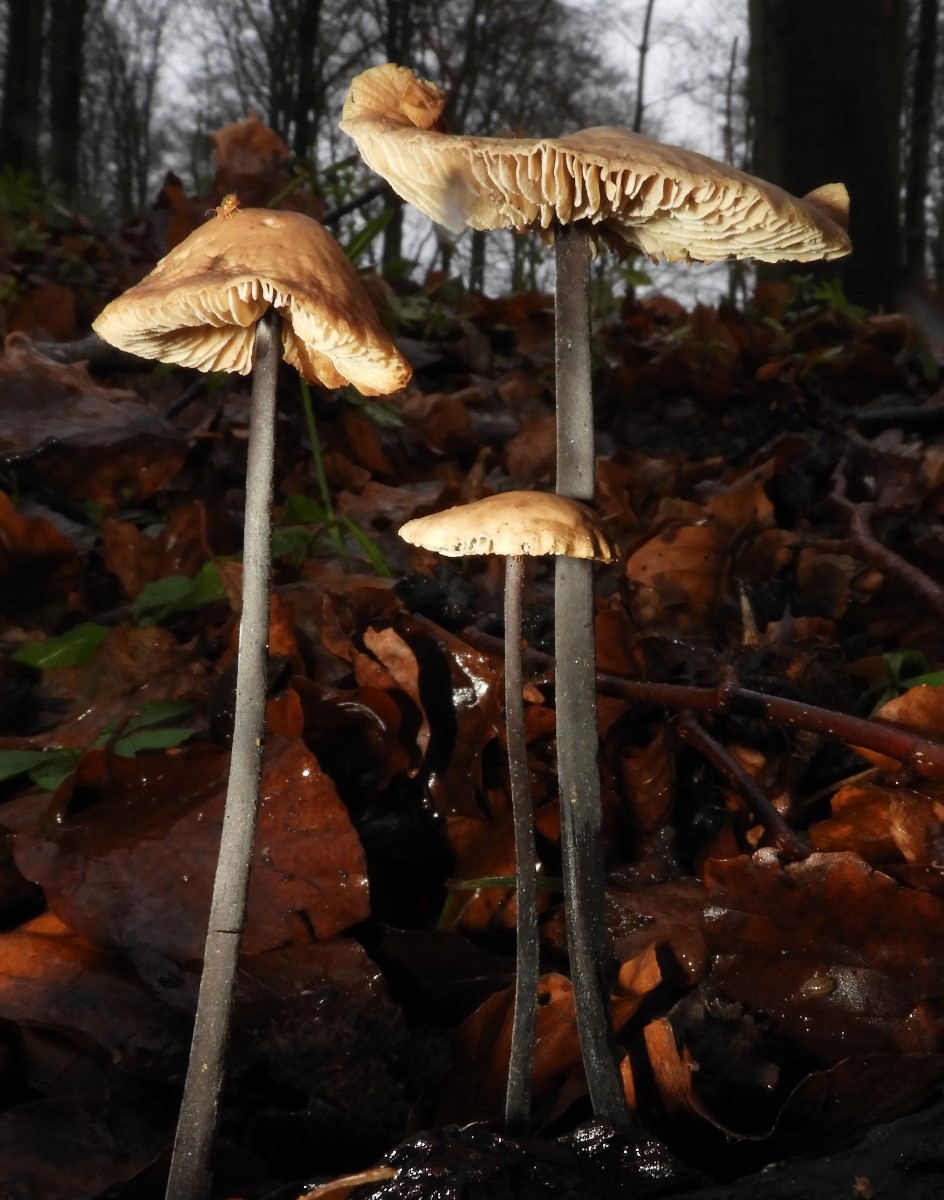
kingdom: Fungi
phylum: Basidiomycota
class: Agaricomycetes
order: Agaricales
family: Omphalotaceae
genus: Mycetinis
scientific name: Mycetinis alliaceus
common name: stor løghat
